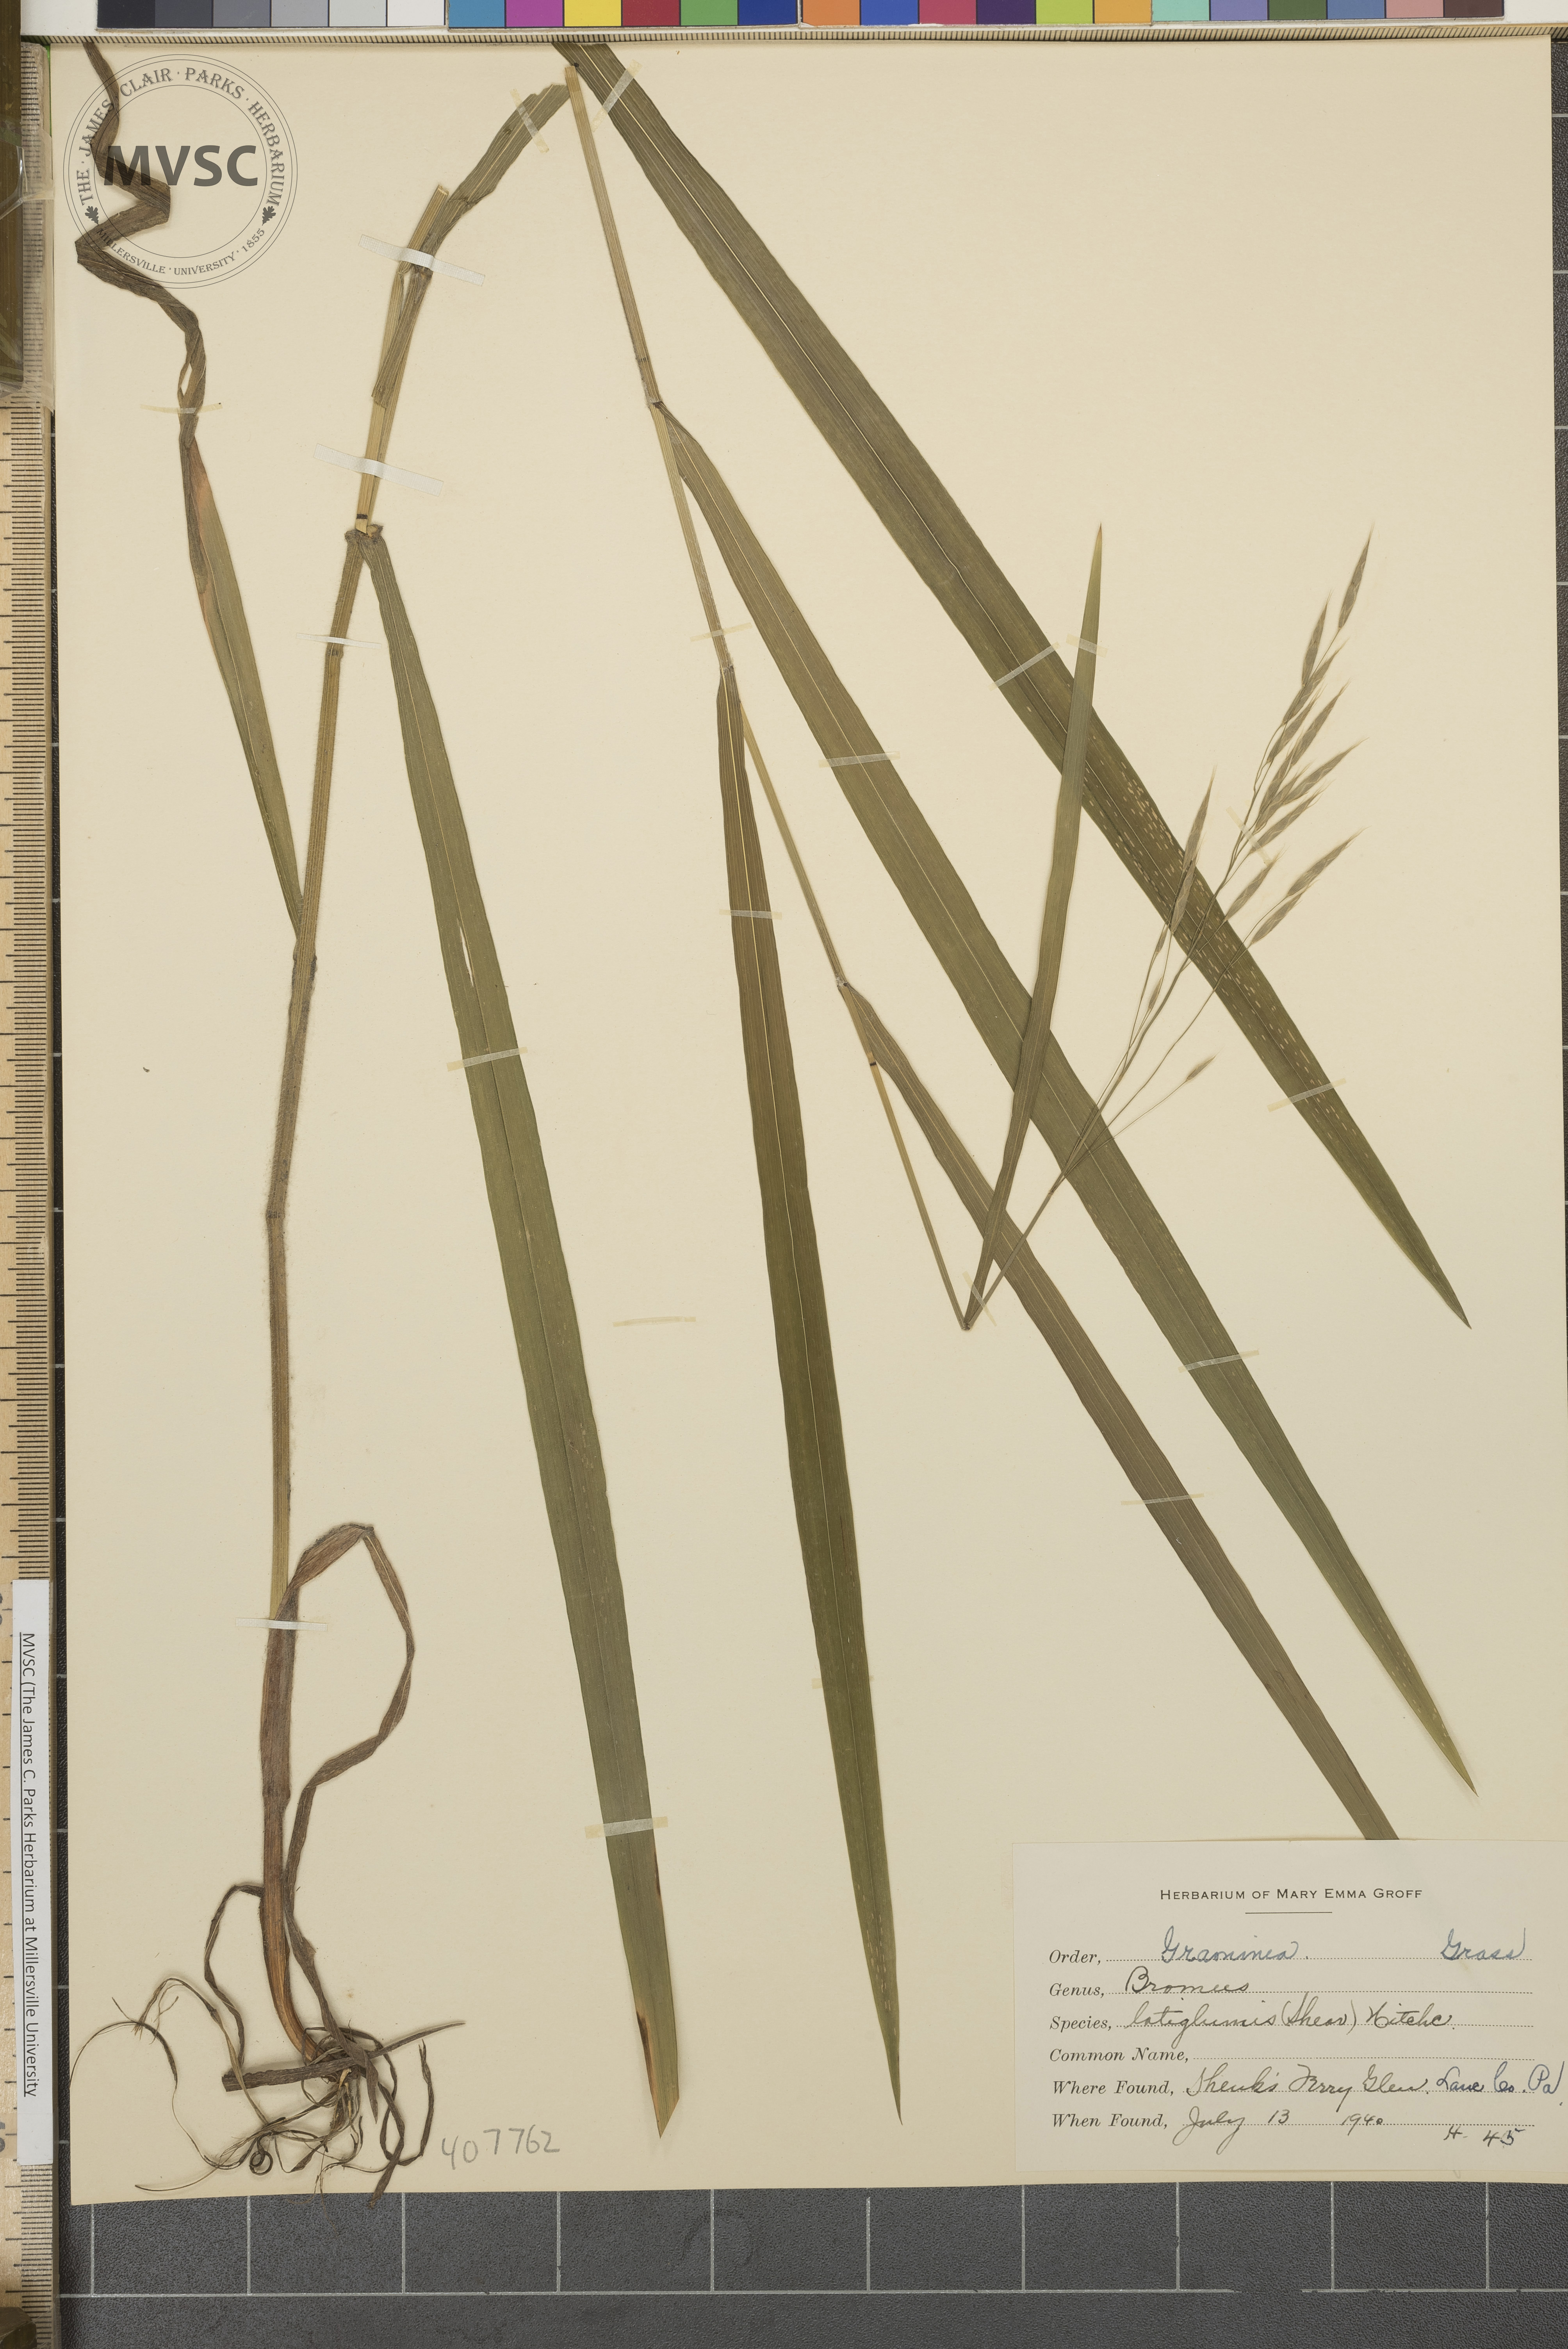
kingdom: Plantae
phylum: Tracheophyta
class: Liliopsida
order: Poales
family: Poaceae
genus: Bromus
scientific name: Bromus latiglumis
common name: Broad-glumed brome
